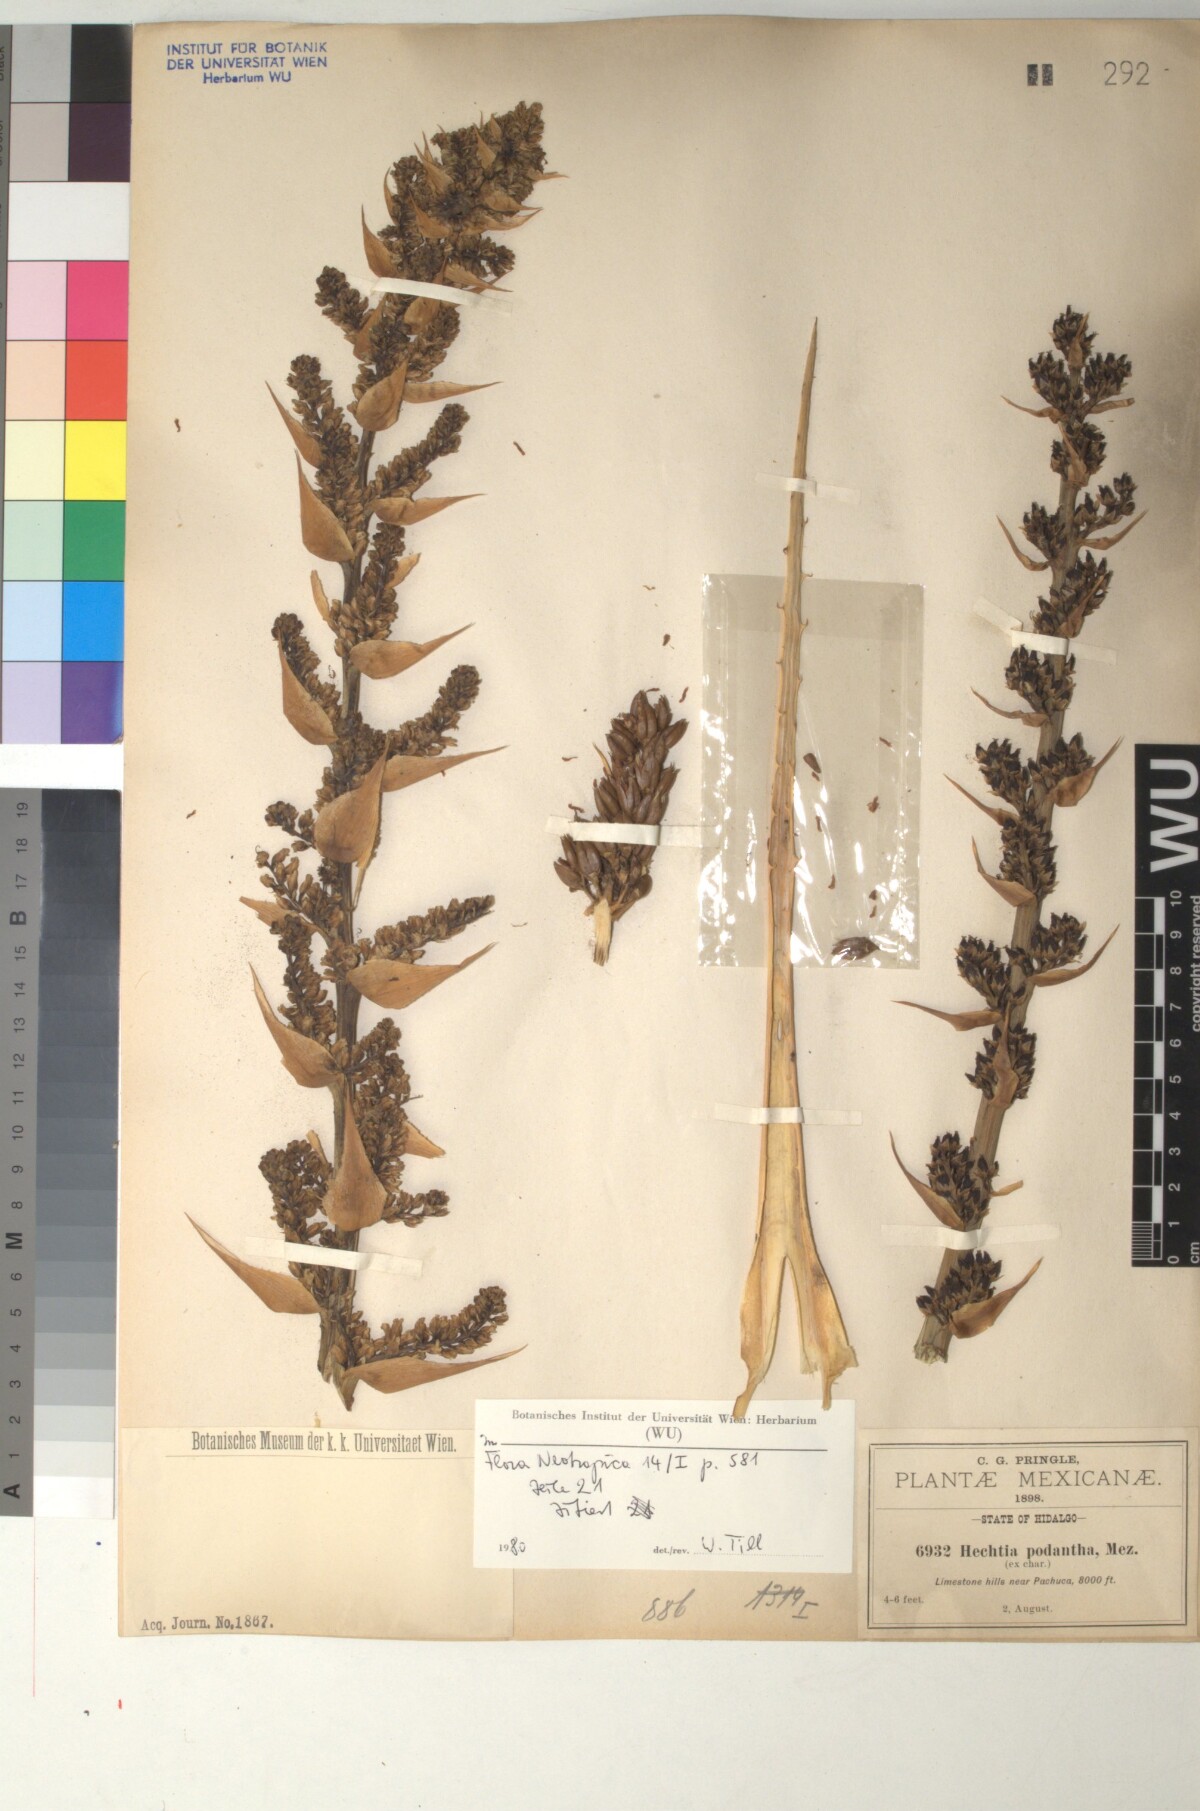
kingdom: Plantae
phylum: Tracheophyta
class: Liliopsida
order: Poales
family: Bromeliaceae
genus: Hechtia
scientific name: Hechtia podantha
